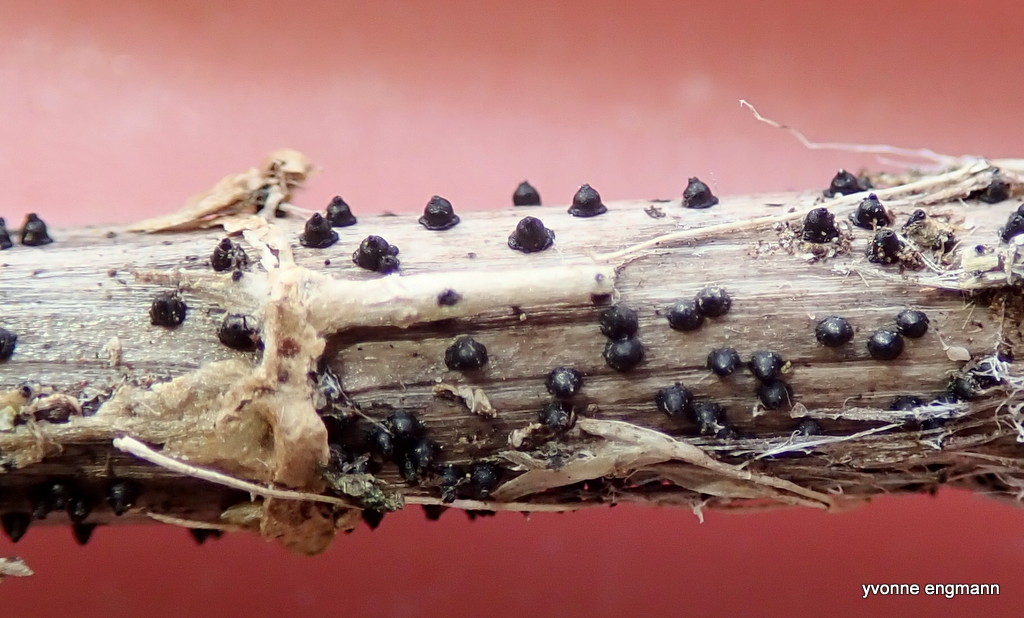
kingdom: Fungi
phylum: Ascomycota
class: Dothideomycetes
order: Pleosporales
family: Leptosphaeriaceae
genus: Leptosphaeria
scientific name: Leptosphaeria
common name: kulkegle
